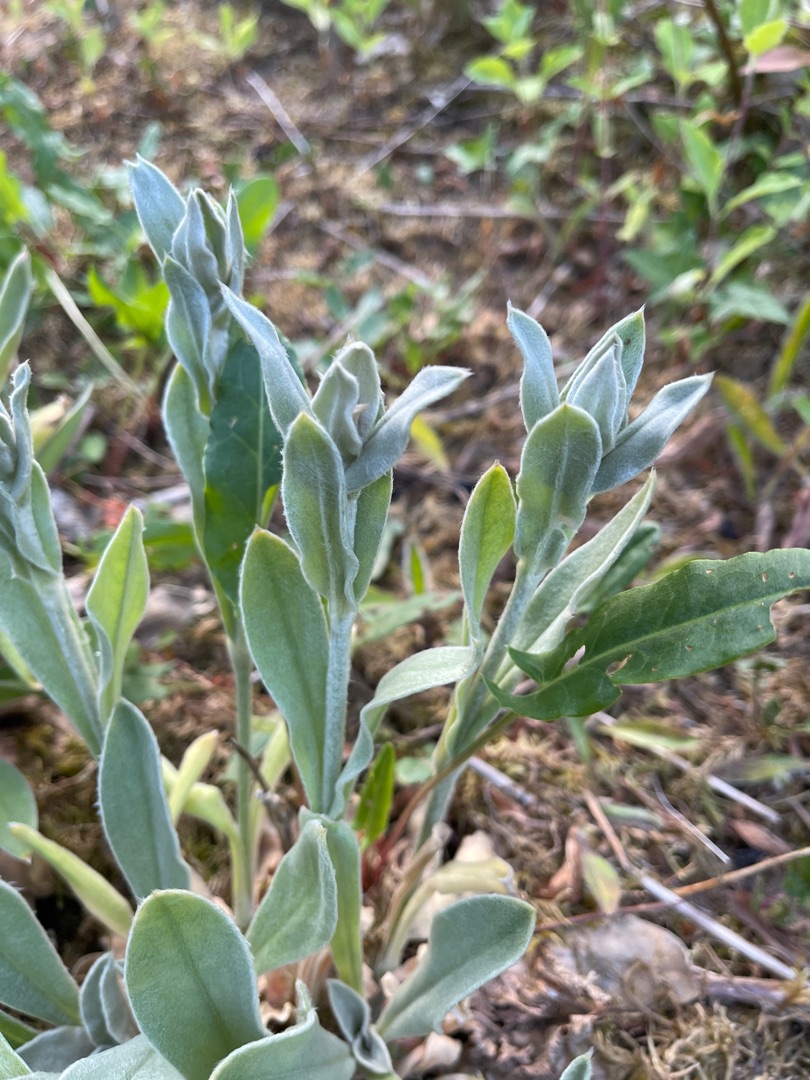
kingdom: Plantae
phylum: Tracheophyta
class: Magnoliopsida
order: Caryophyllales
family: Caryophyllaceae
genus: Silene
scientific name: Silene coronaria
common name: Fiksernellike
